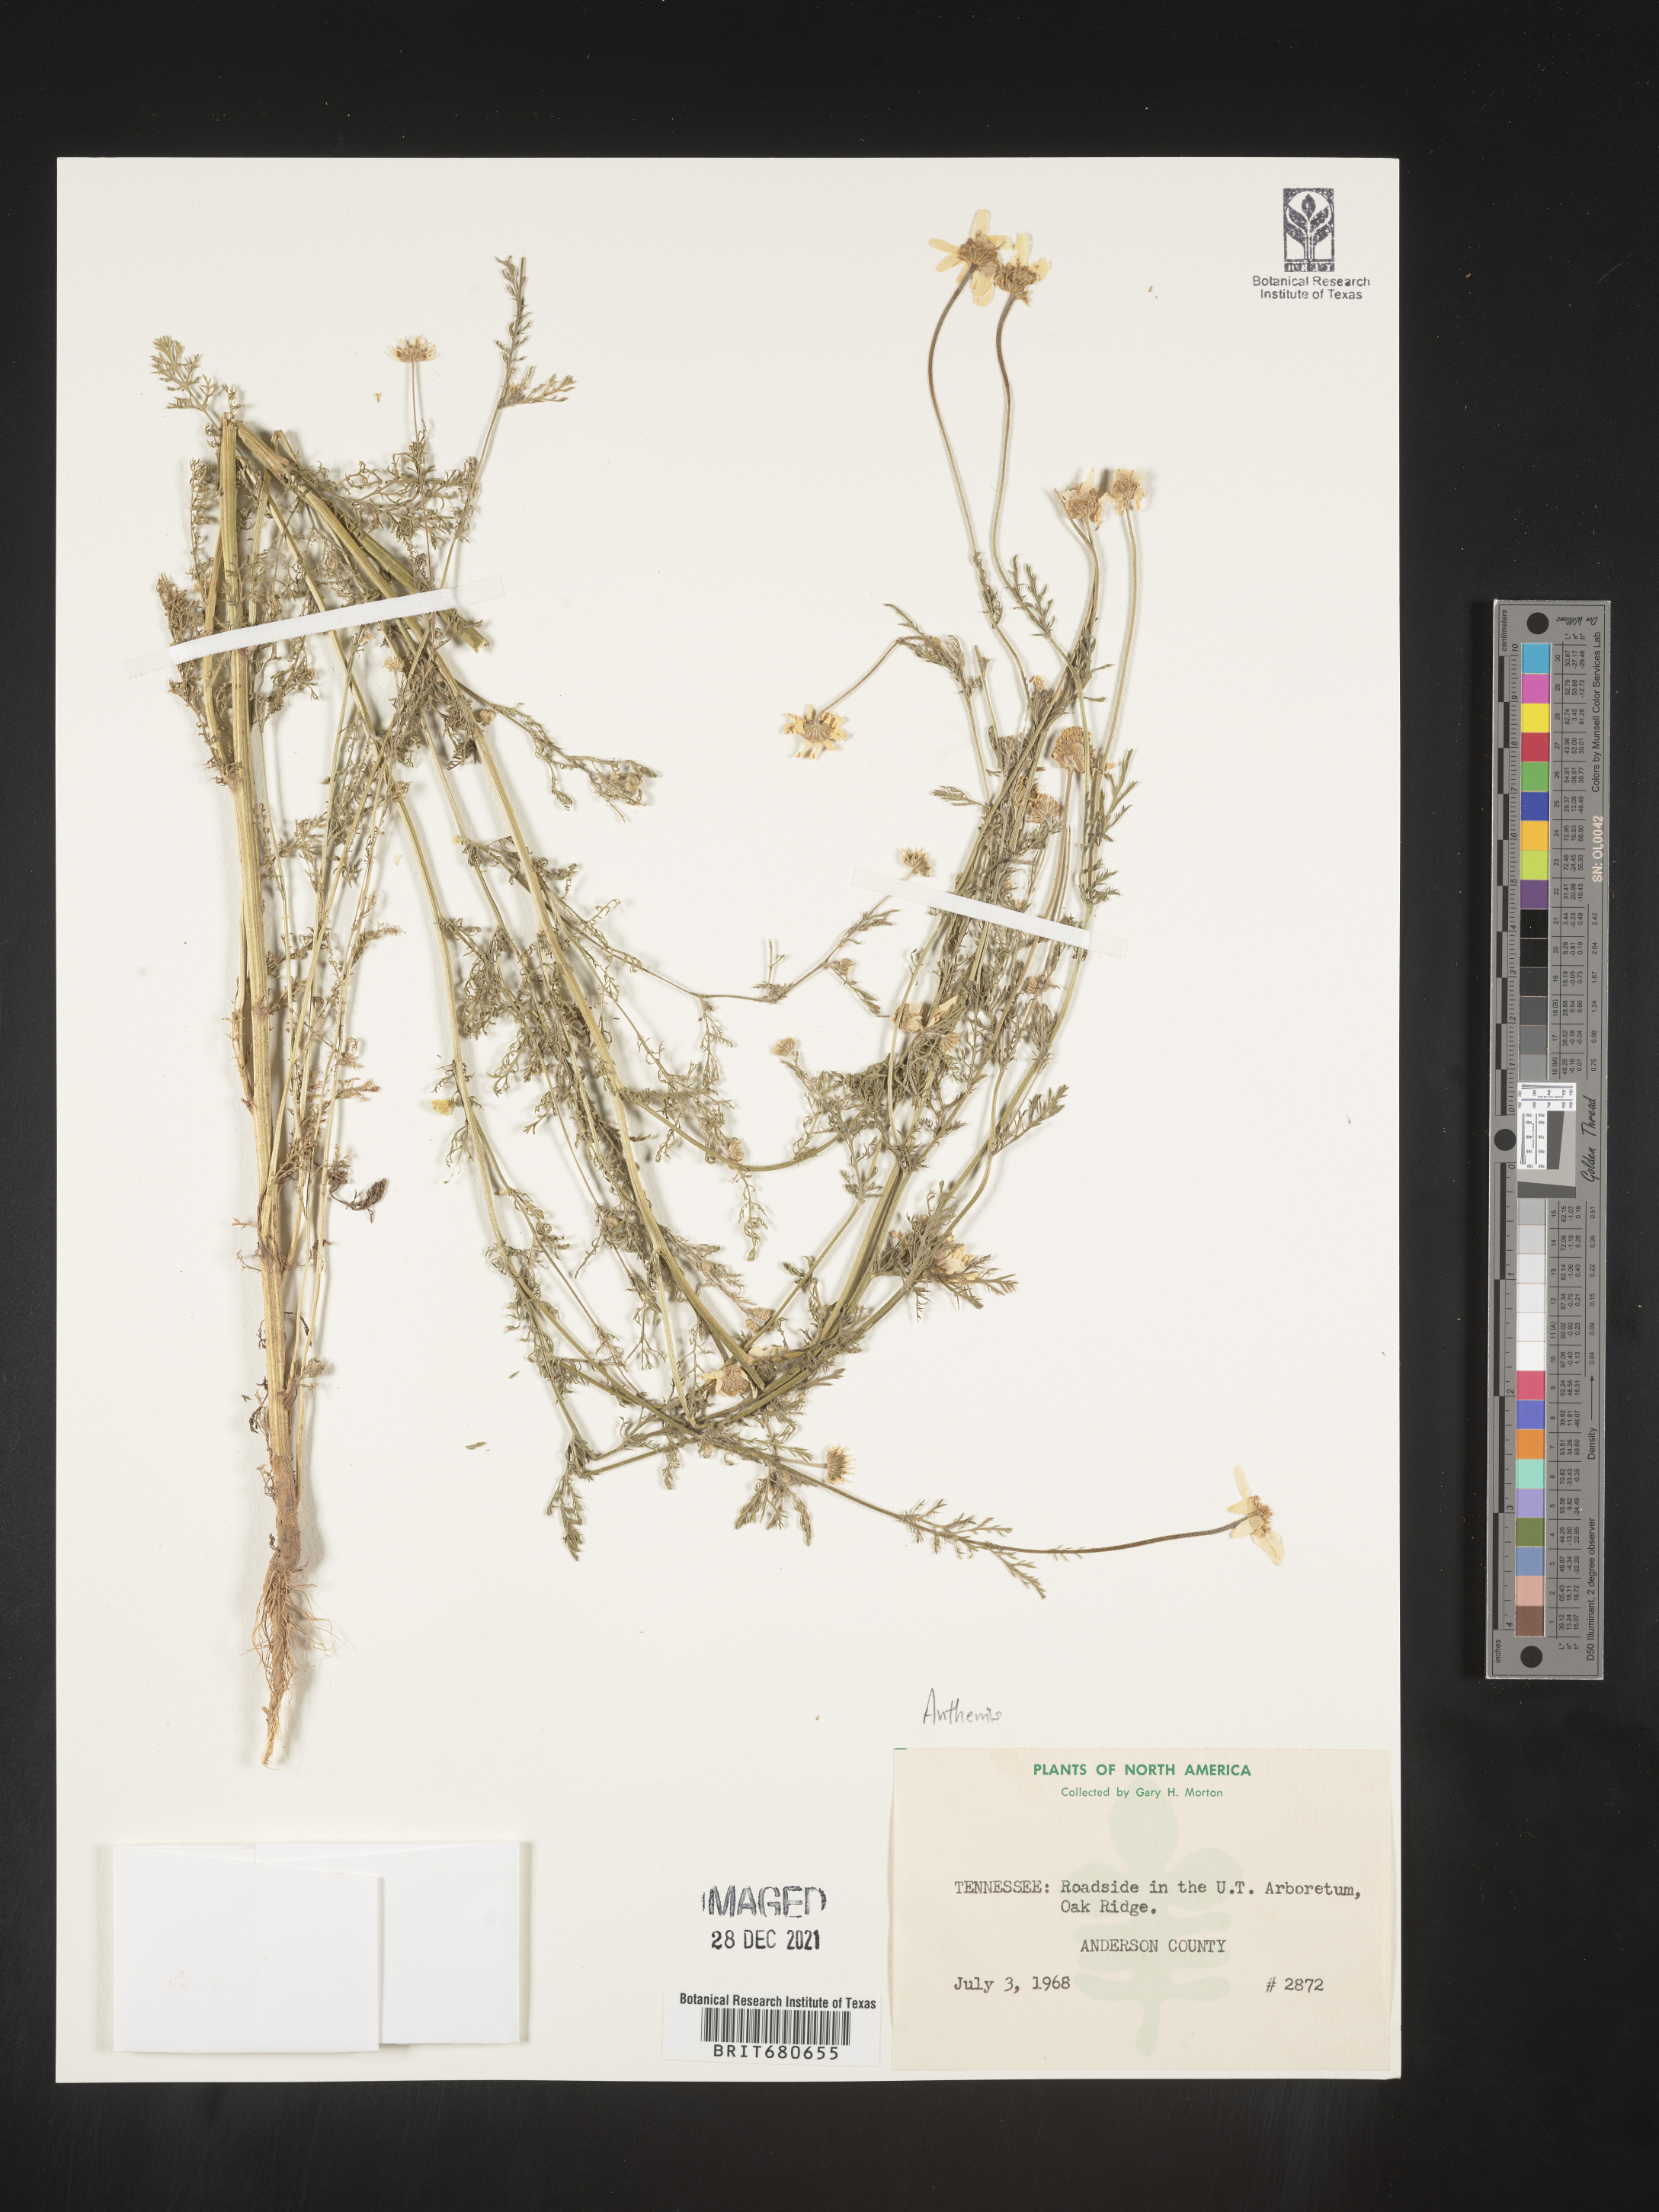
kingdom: Plantae
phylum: Tracheophyta
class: Magnoliopsida
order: Asterales
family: Asteraceae
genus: Anthemis
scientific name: Anthemis cotula
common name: Stinking chamomile
